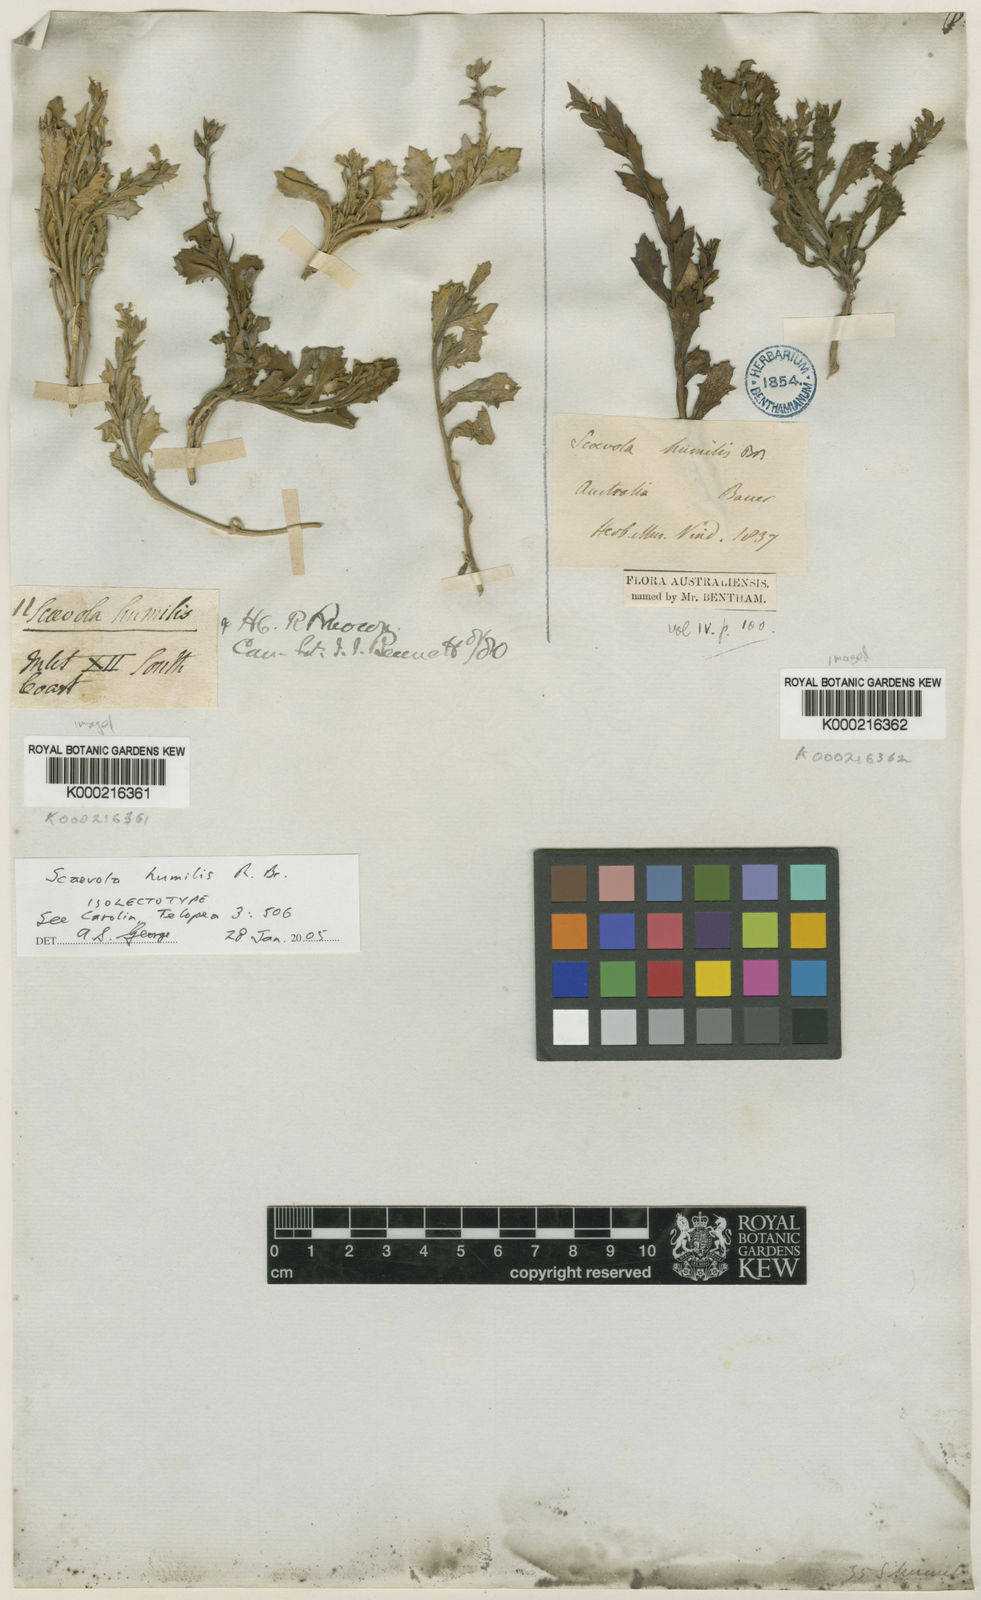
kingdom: Plantae
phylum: Tracheophyta
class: Magnoliopsida
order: Asterales
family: Goodeniaceae
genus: Scaevola
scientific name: Scaevola humilis
